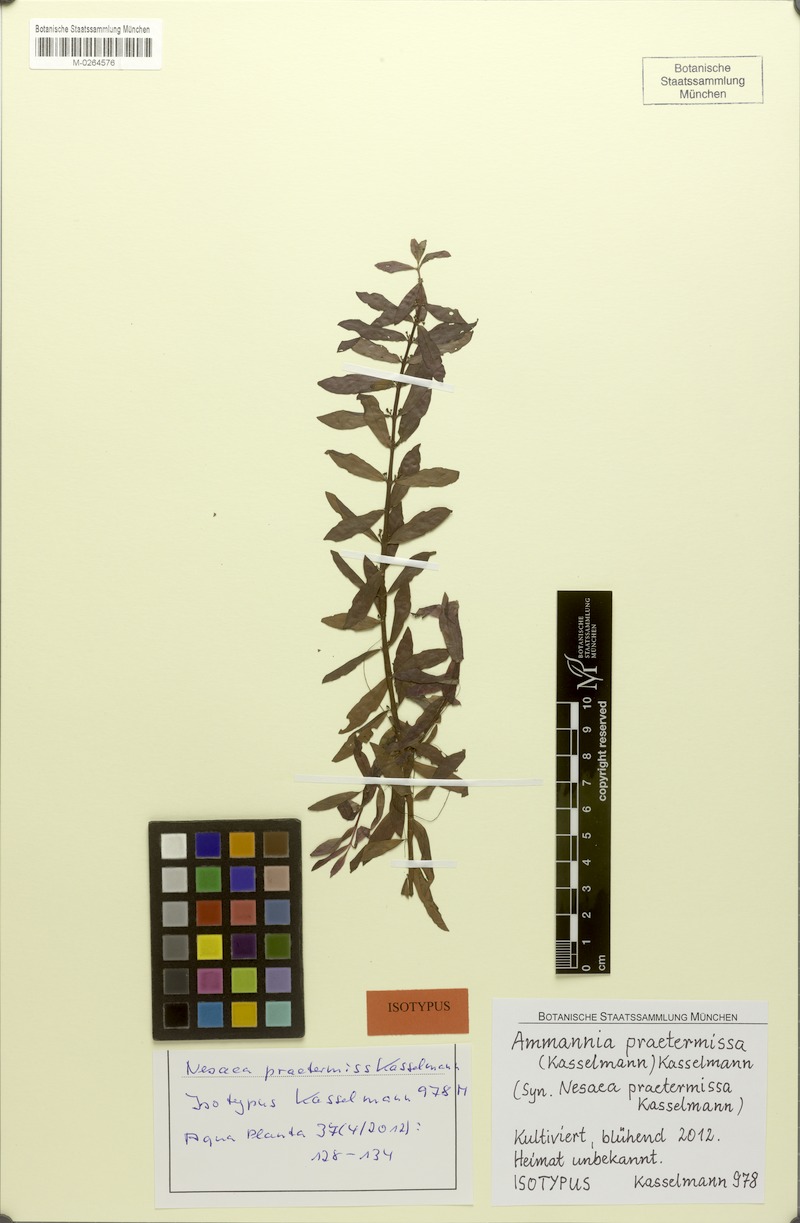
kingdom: Plantae
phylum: Tracheophyta
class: Magnoliopsida
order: Myrtales
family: Lythraceae
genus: Ammannia
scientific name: Ammannia praetermissa
